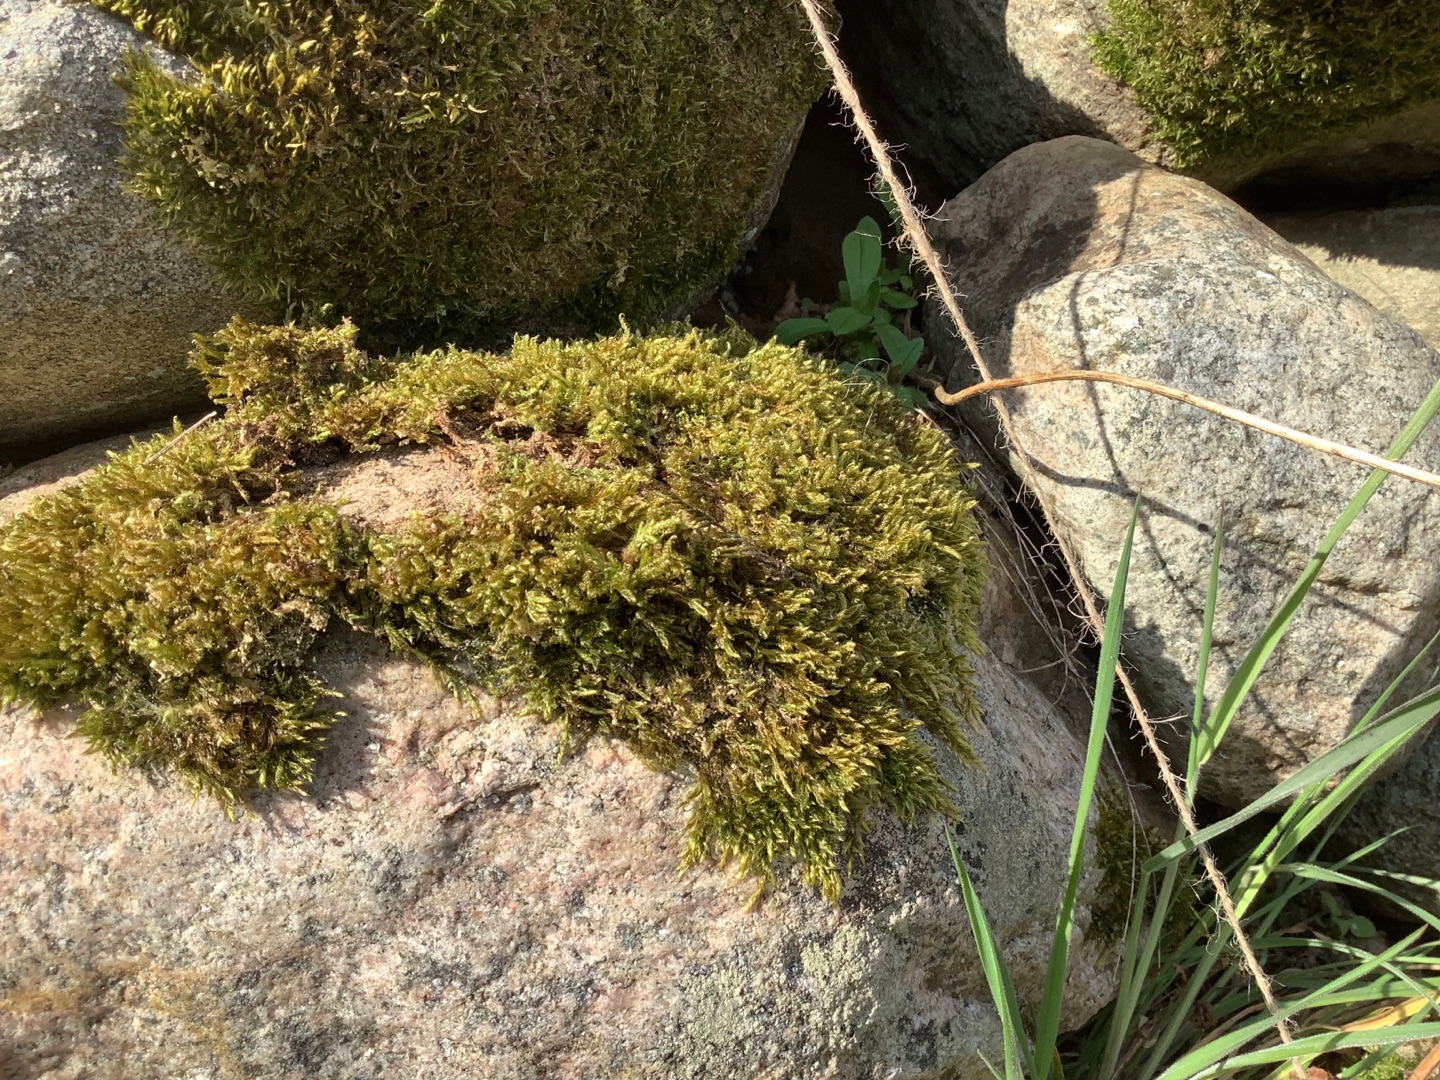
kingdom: Plantae
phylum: Bryophyta
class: Bryopsida
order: Hypnales
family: Hypnaceae
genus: Hypnum
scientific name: Hypnum cupressiforme
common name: Almindelig cypresmos
